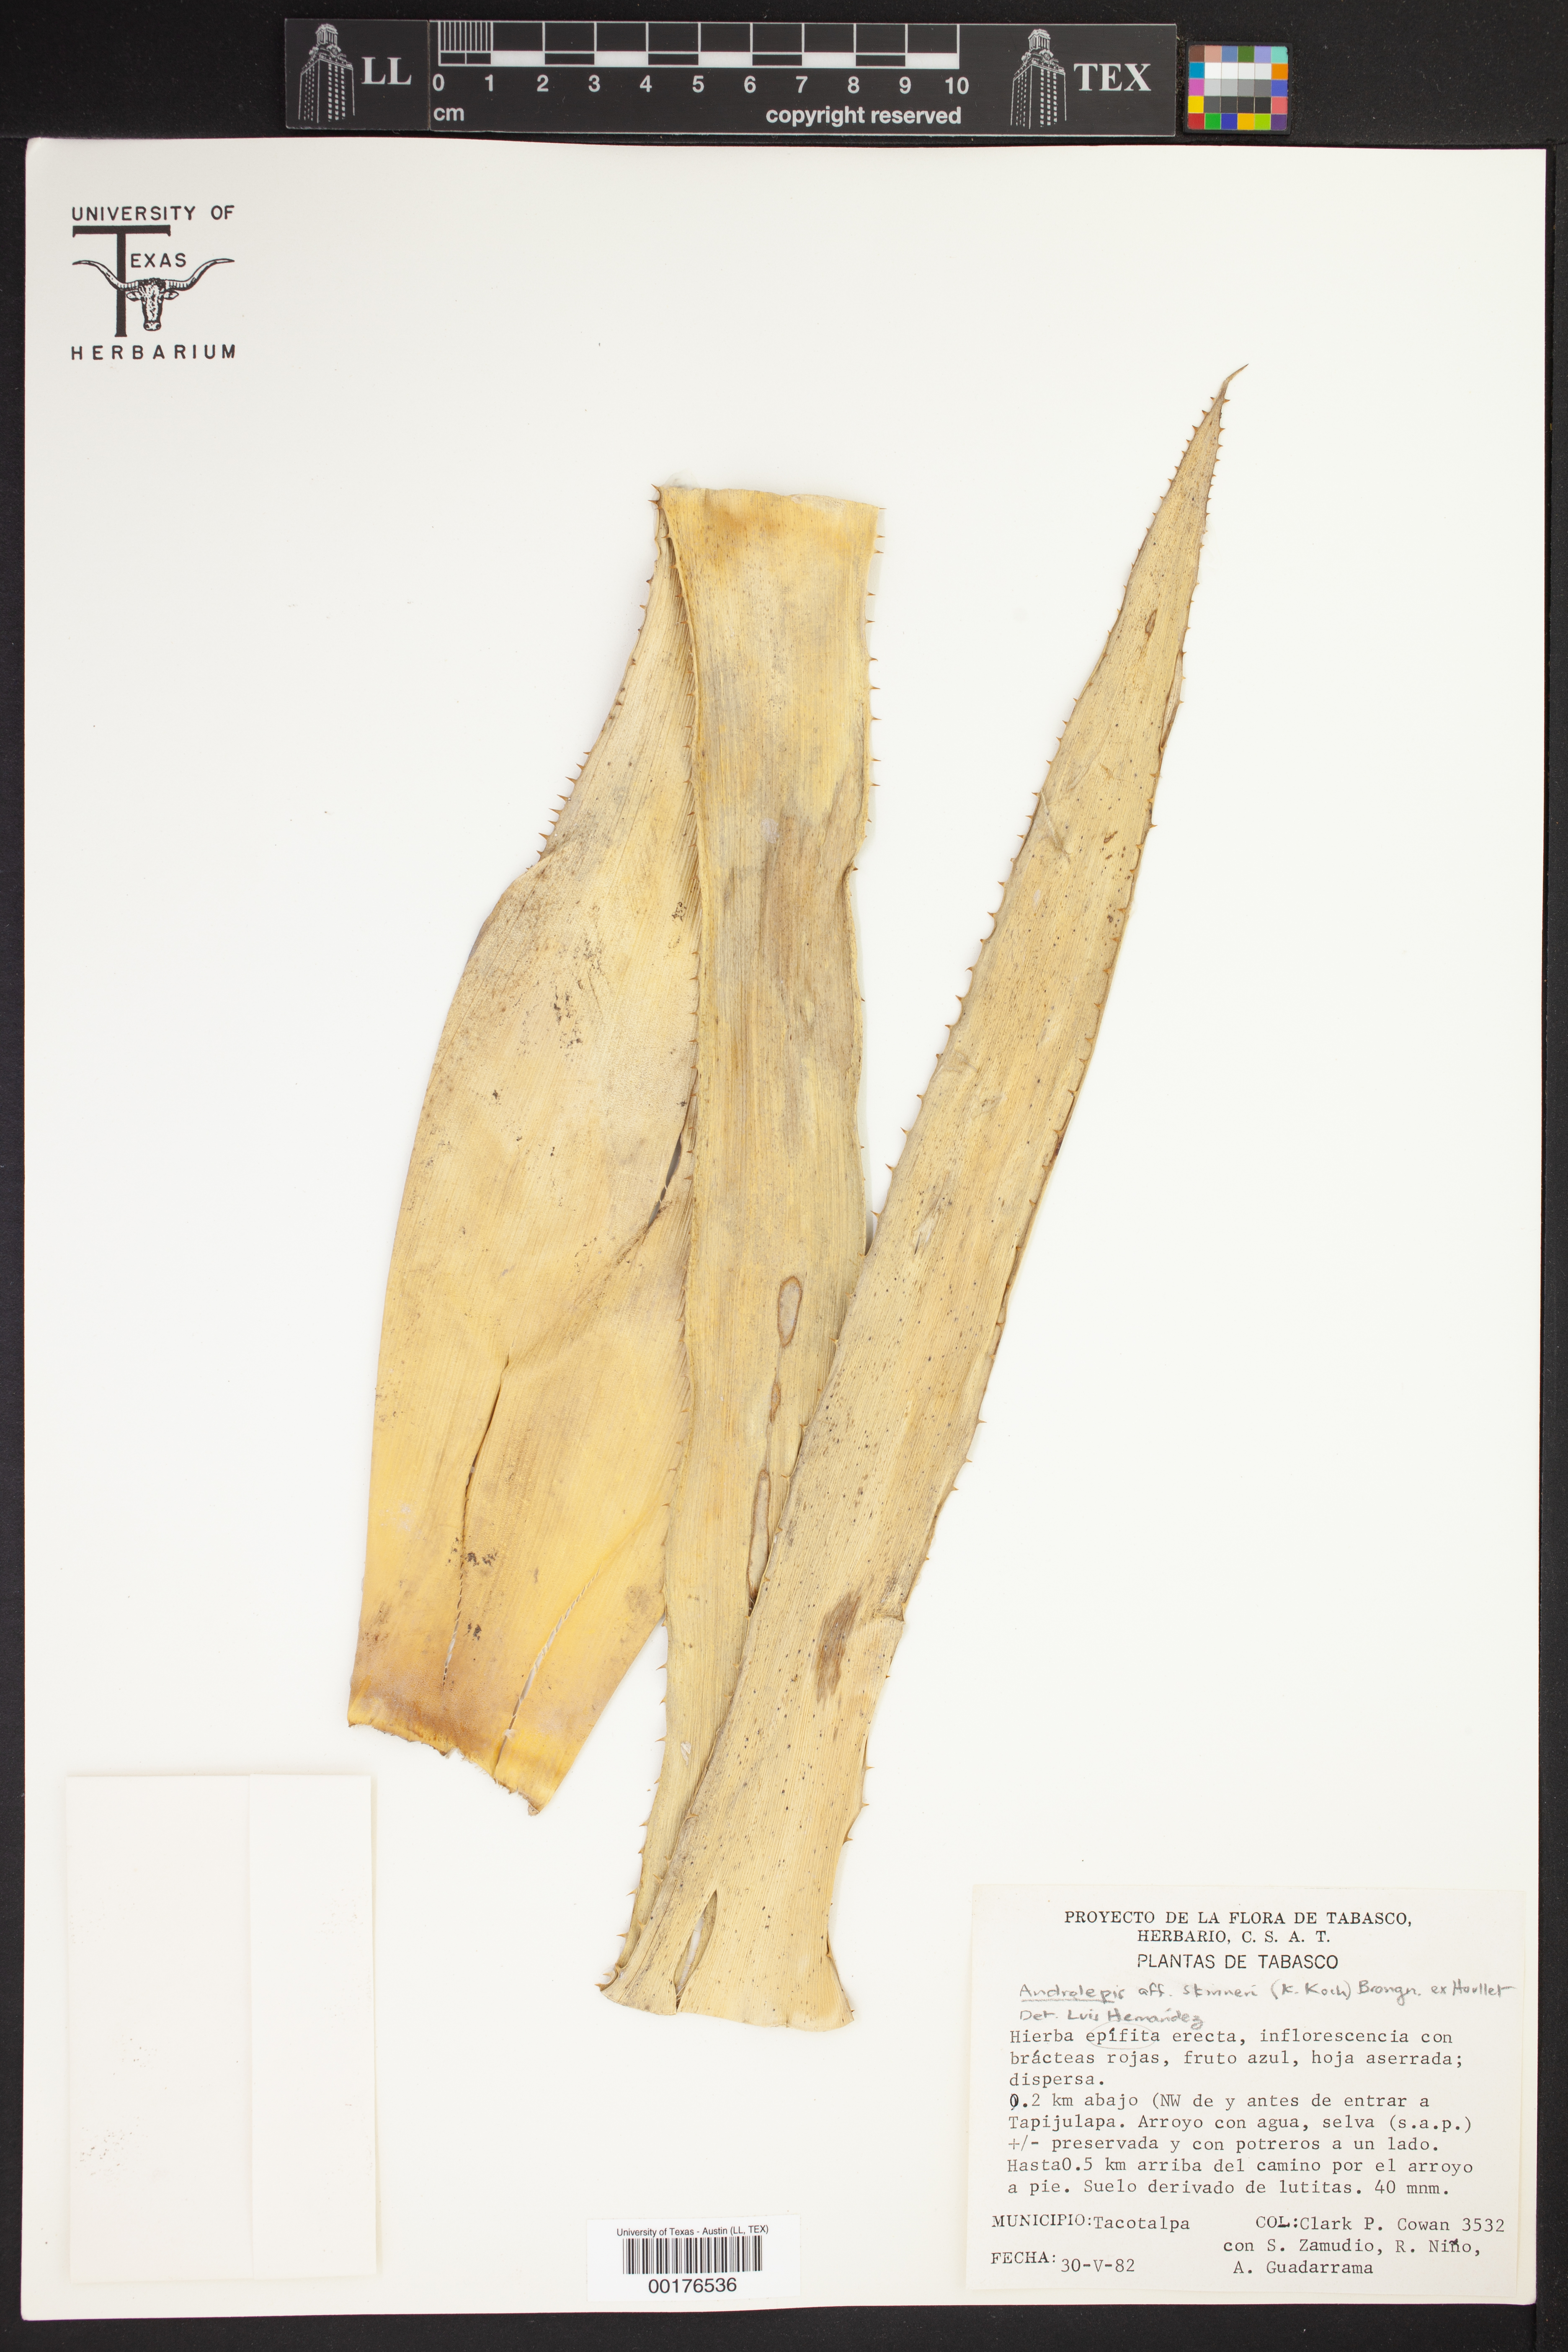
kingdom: Plantae
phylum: Tracheophyta
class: Liliopsida
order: Poales
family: Bromeliaceae
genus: Androlepis
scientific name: Androlepis skinneri
